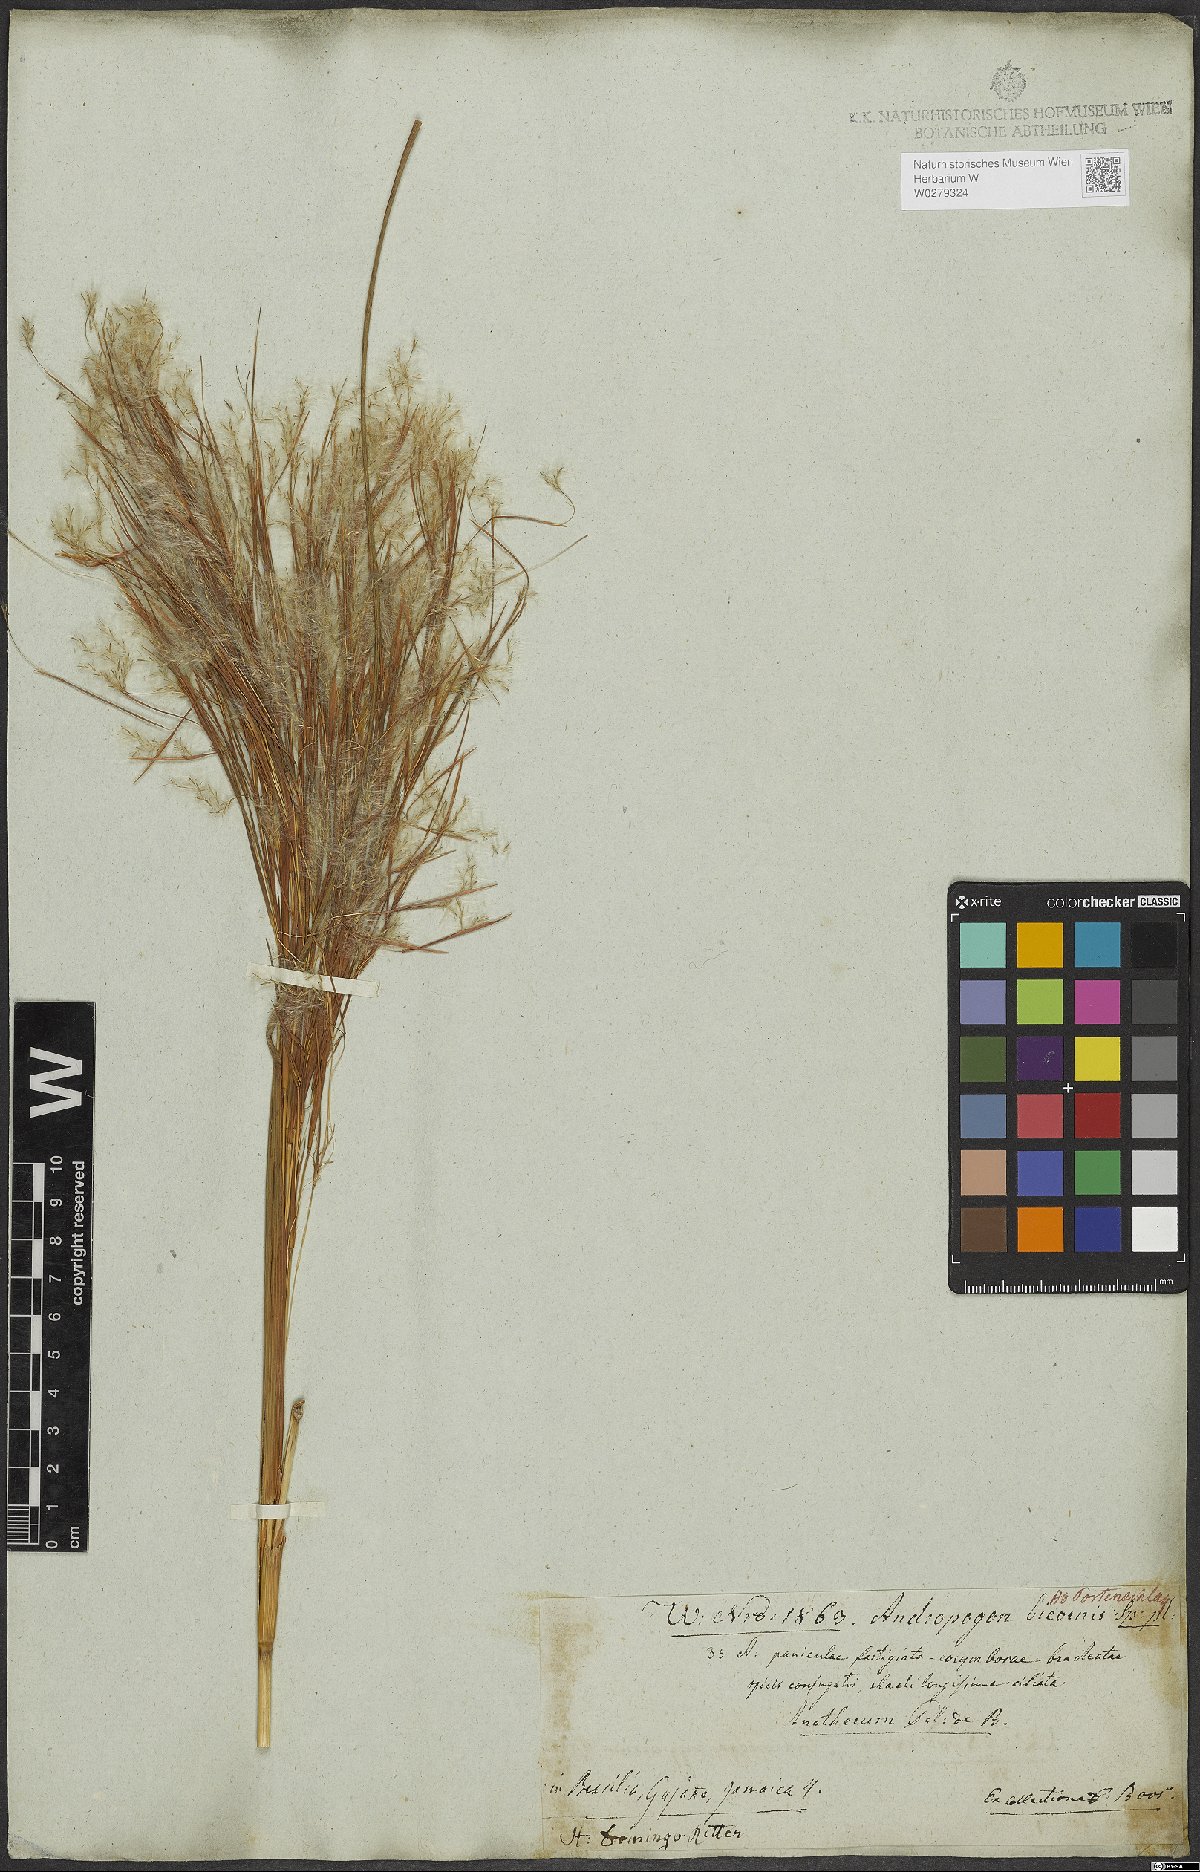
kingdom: Plantae
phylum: Tracheophyta
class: Liliopsida
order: Poales
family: Poaceae
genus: Andropogon
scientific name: Andropogon bicornis
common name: West indian foxtail grass
